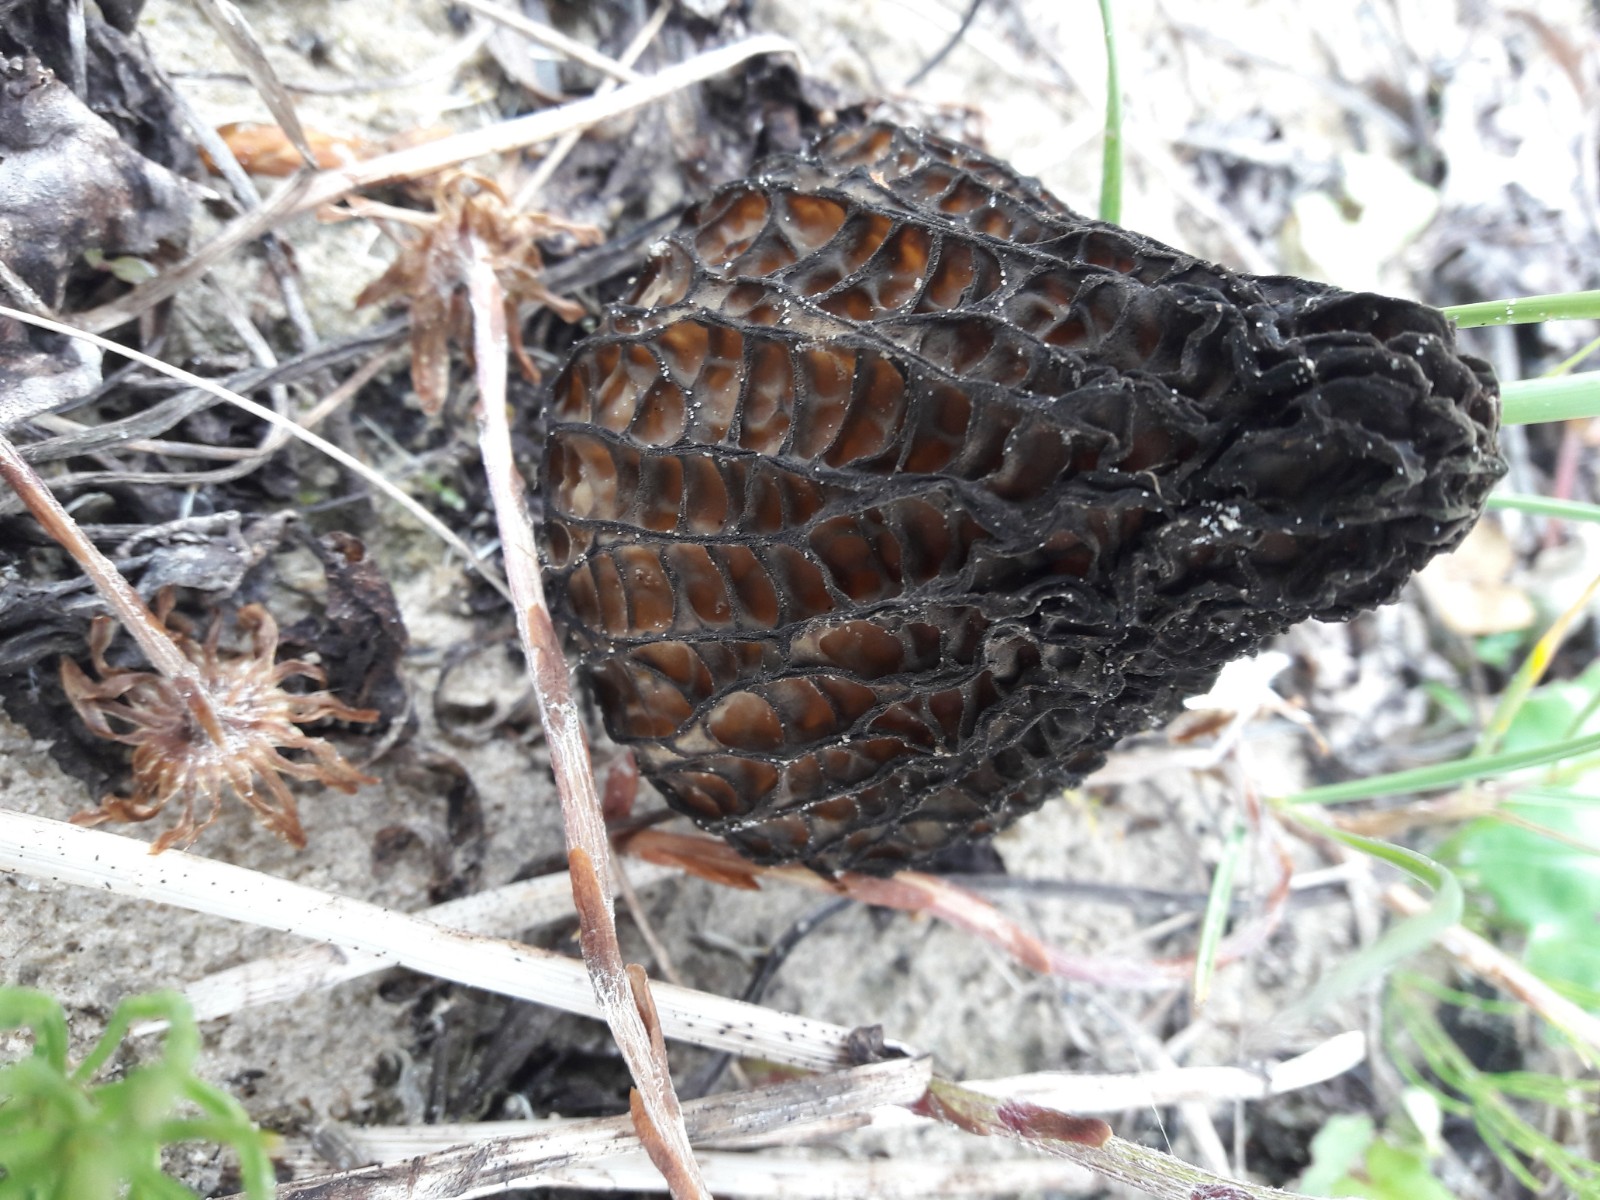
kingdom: Fungi
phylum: Ascomycota
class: Pezizomycetes
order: Pezizales
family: Morchellaceae
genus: Morchella
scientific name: Morchella
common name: morkel
